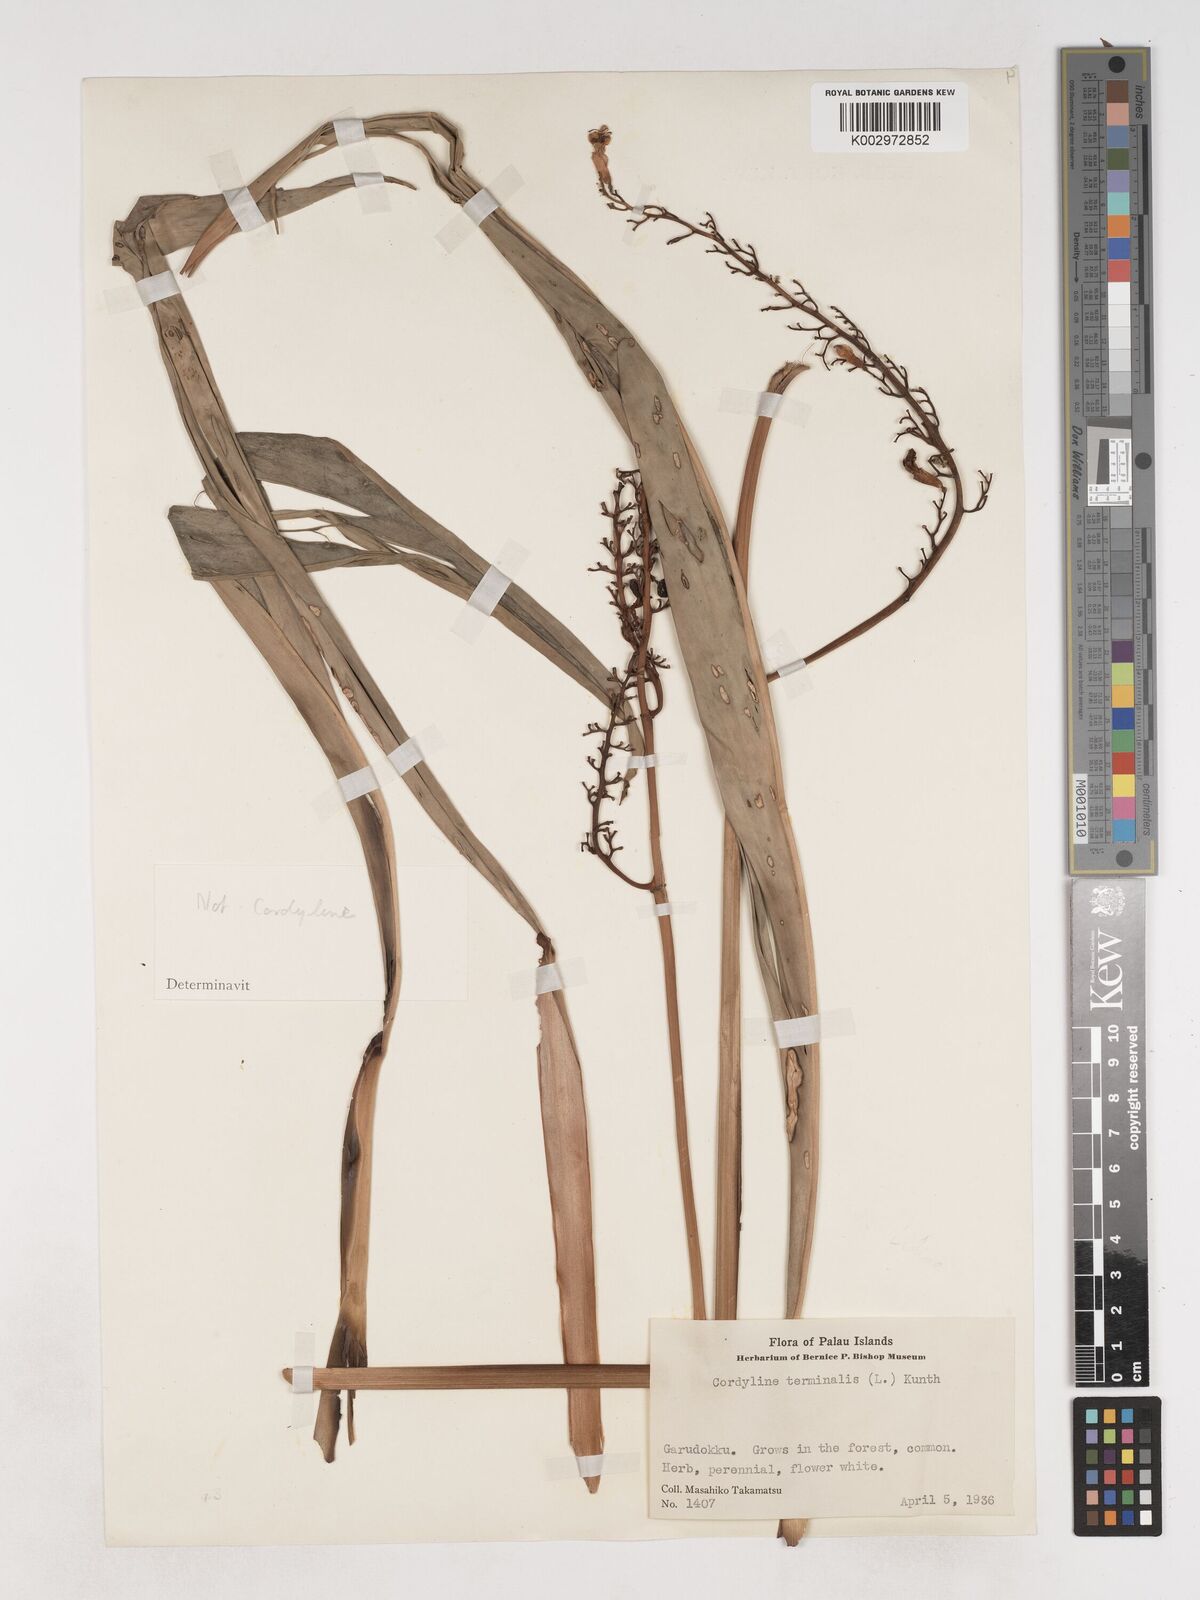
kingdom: Plantae
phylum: Tracheophyta
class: Liliopsida
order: Asparagales
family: Asparagaceae
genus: Cordyline
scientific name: Cordyline fruticosa
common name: Good-luck-plant
